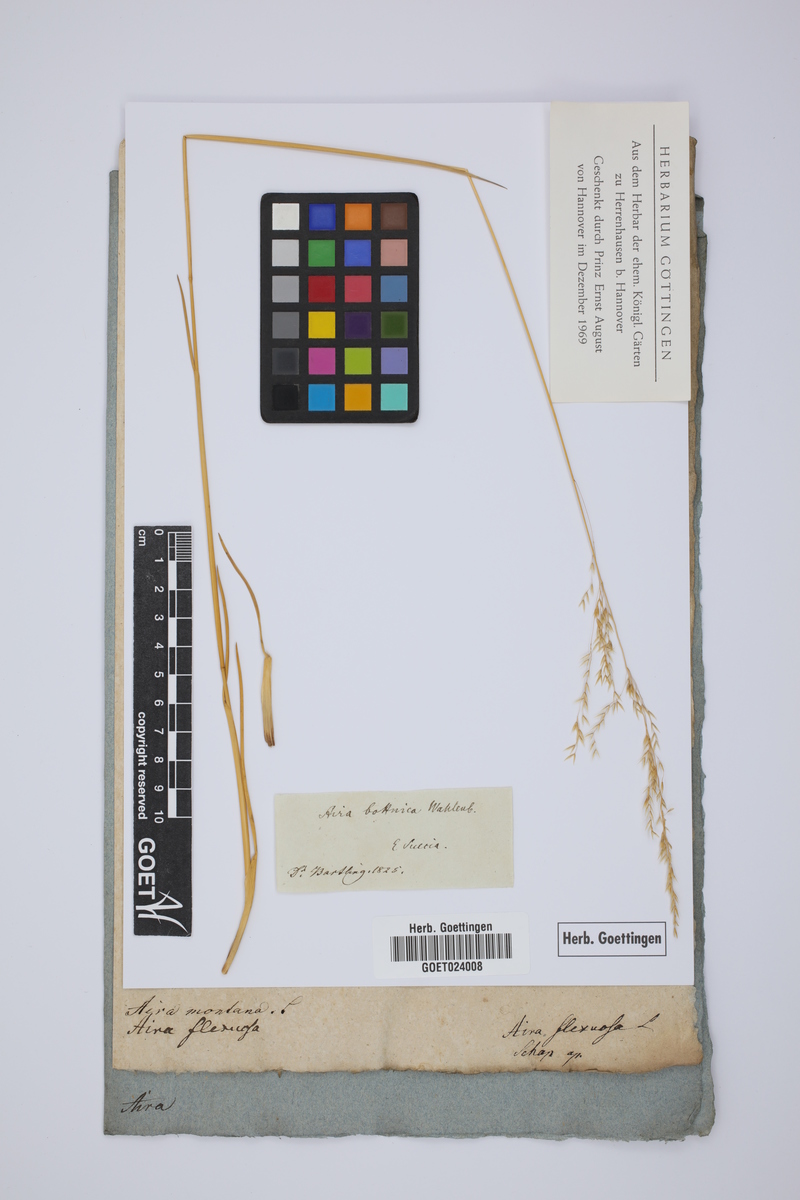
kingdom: Plantae
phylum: Tracheophyta
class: Liliopsida
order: Poales
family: Poaceae
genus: Deschampsia
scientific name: Deschampsia cespitosa
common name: Tufted hair-grass
